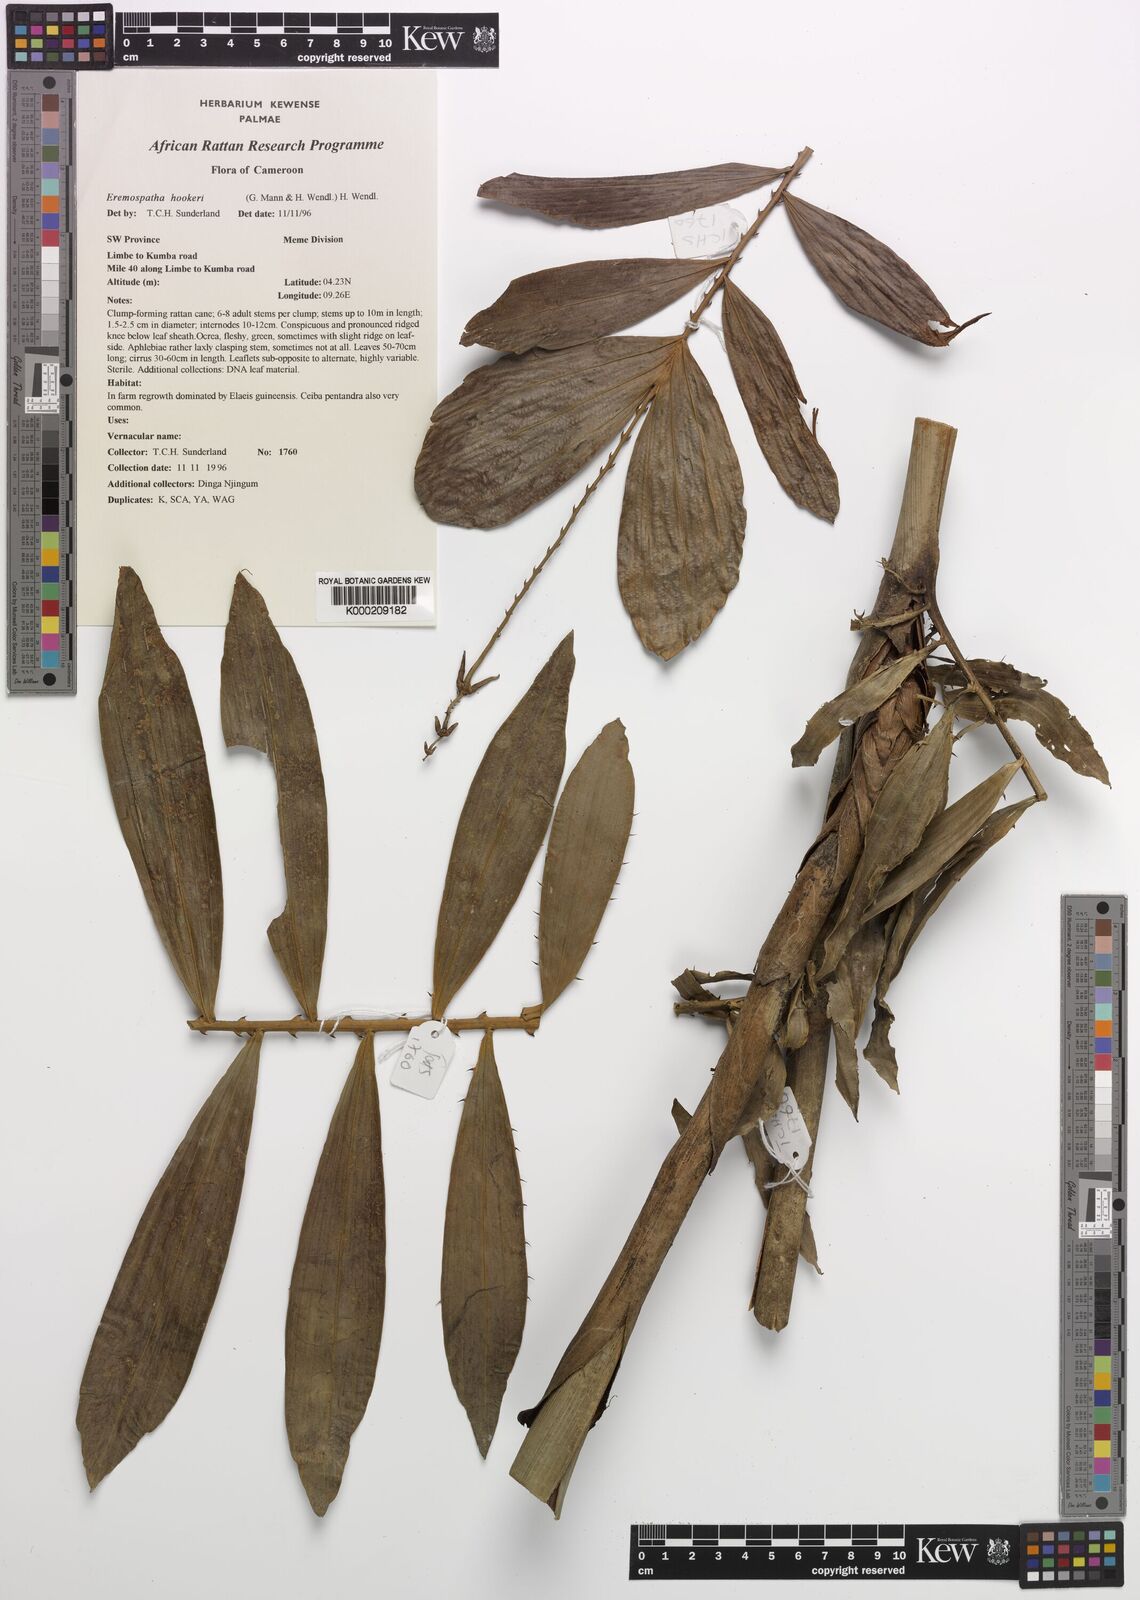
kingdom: Plantae
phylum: Tracheophyta
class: Liliopsida
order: Arecales
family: Arecaceae
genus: Eremospatha
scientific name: Eremospatha hookeri
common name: Rattan
